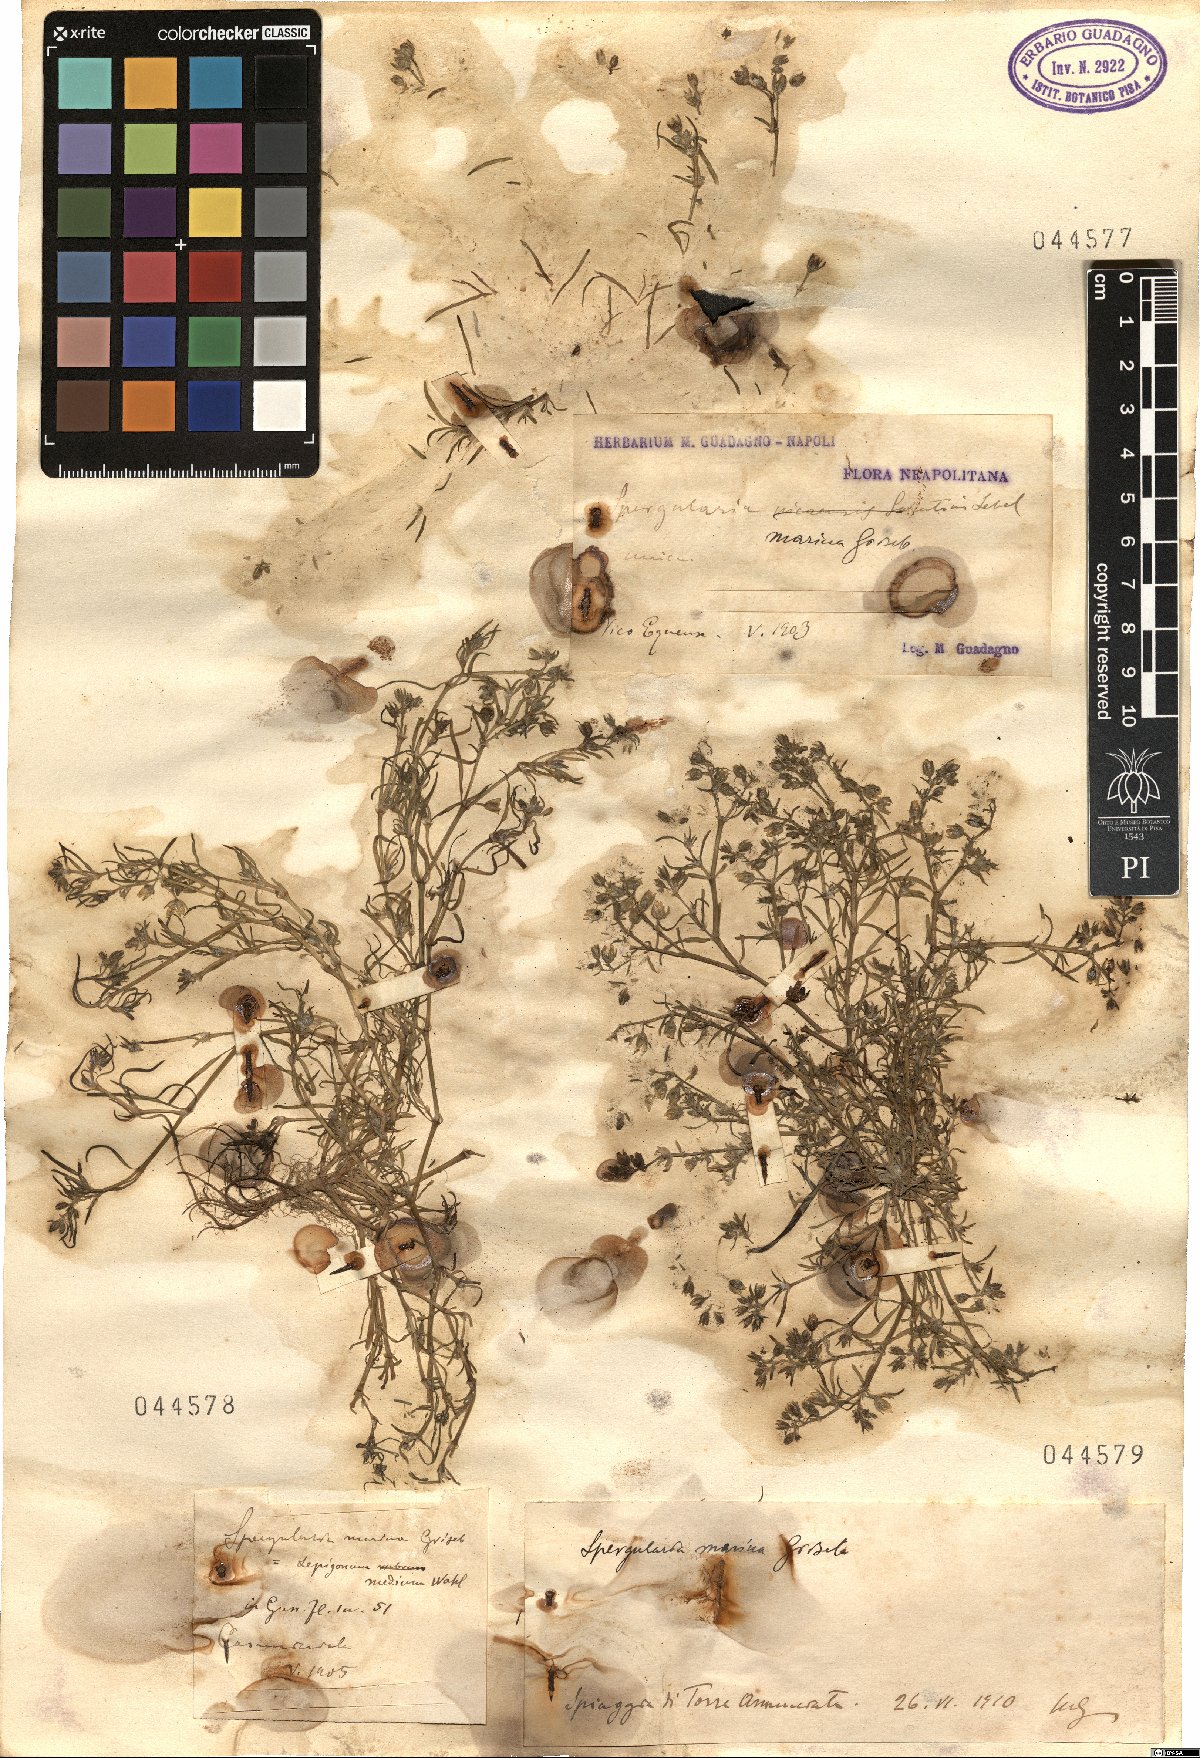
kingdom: Plantae
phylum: Tracheophyta
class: Magnoliopsida
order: Caryophyllales
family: Caryophyllaceae
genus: Spergularia
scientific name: Spergularia marina
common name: Lesser sea-spurrey
